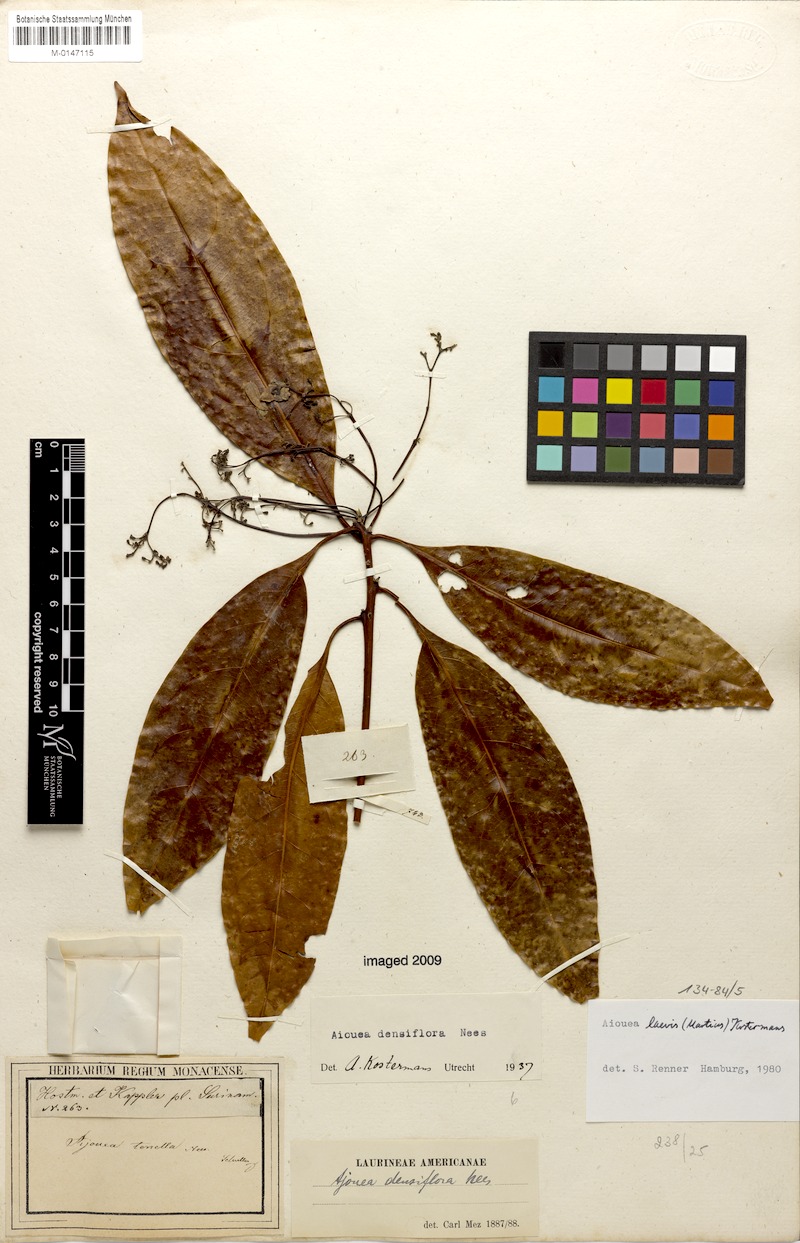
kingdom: Plantae
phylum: Tracheophyta
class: Magnoliopsida
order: Laurales
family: Lauraceae
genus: Aiouea
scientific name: Aiouea laevis
